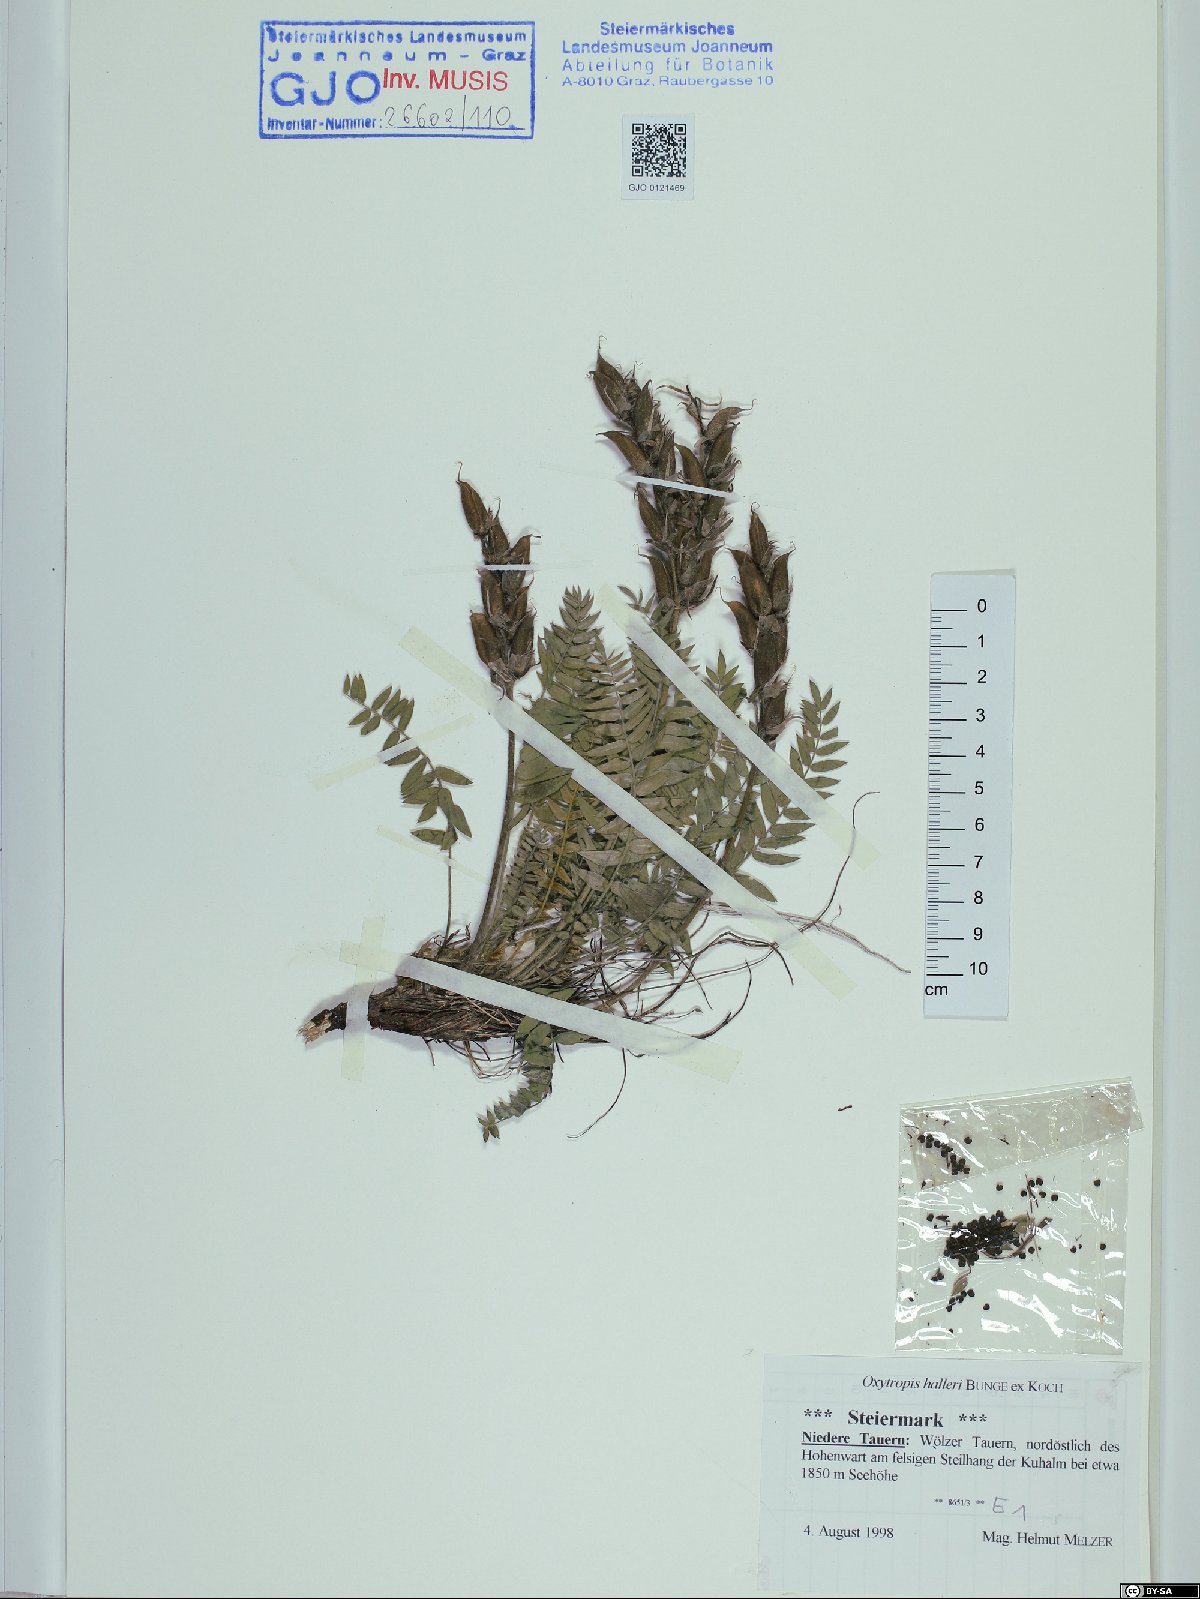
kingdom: Plantae
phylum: Tracheophyta
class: Magnoliopsida
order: Fabales
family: Fabaceae
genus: Oxytropis
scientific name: Oxytropis halleri
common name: Purple oxytropis
